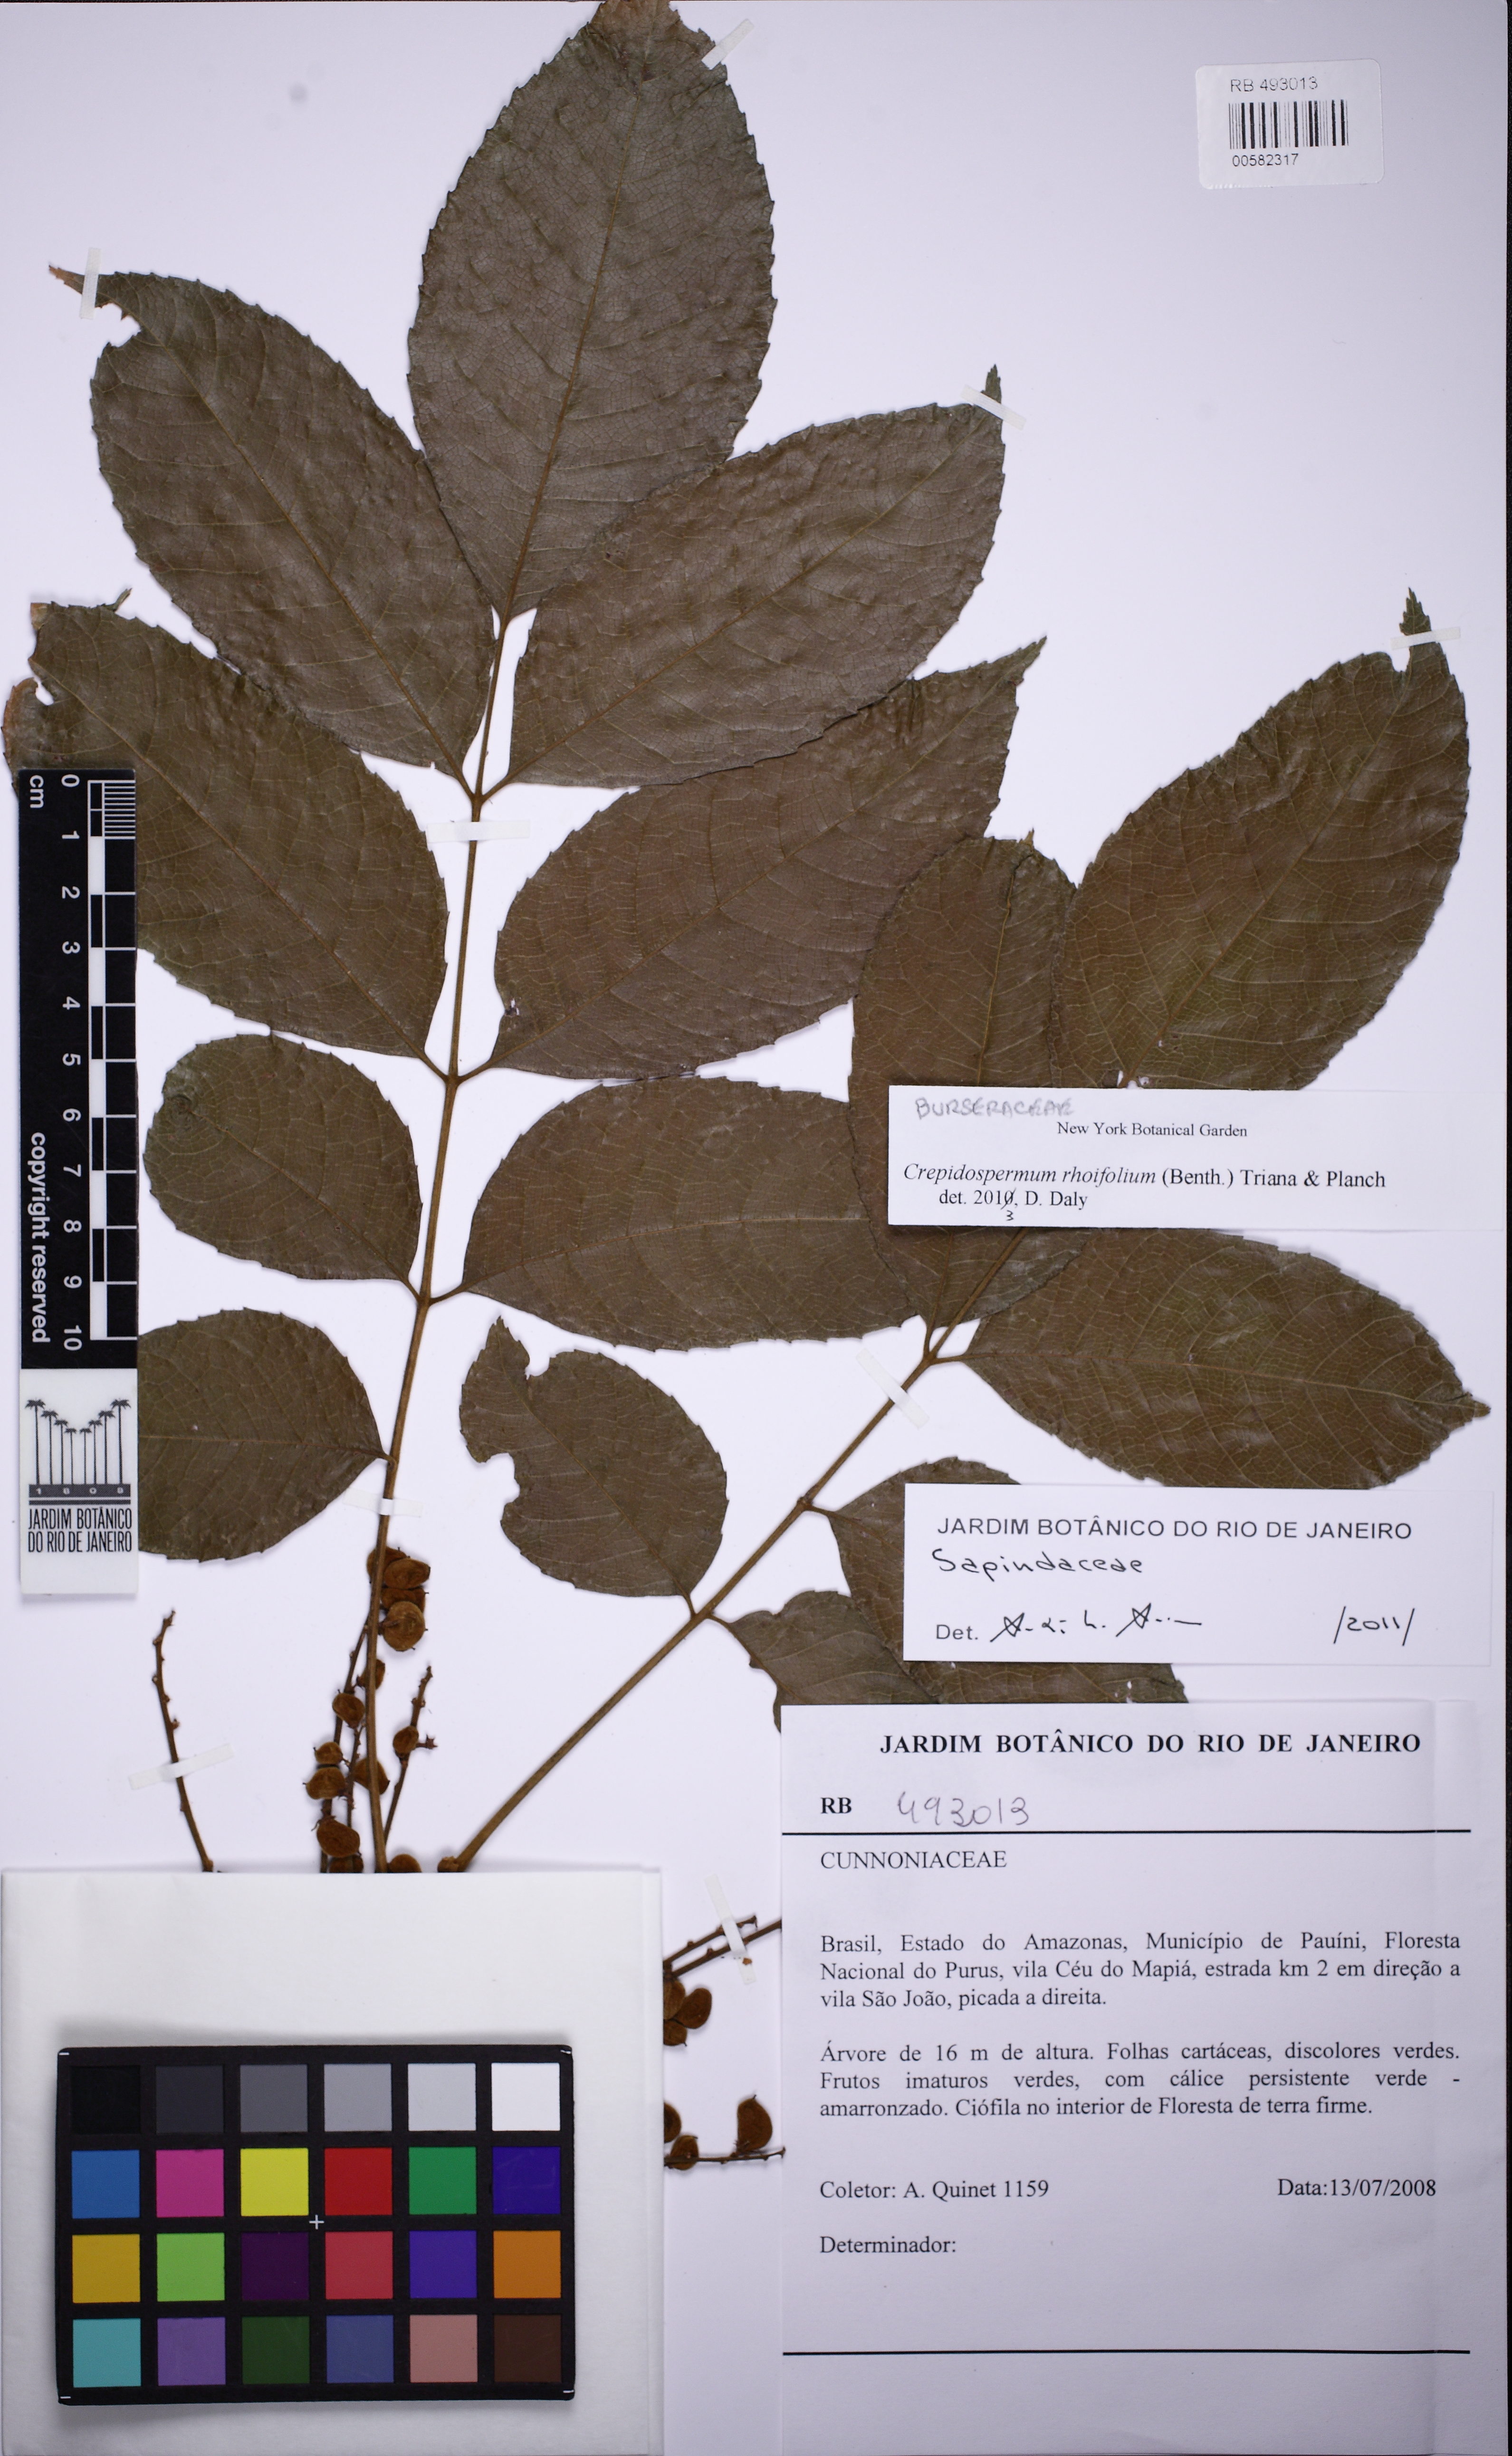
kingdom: Plantae
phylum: Tracheophyta
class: Magnoliopsida
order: Sapindales
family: Burseraceae
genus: Crepidospermum
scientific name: Crepidospermum rhoifolium
